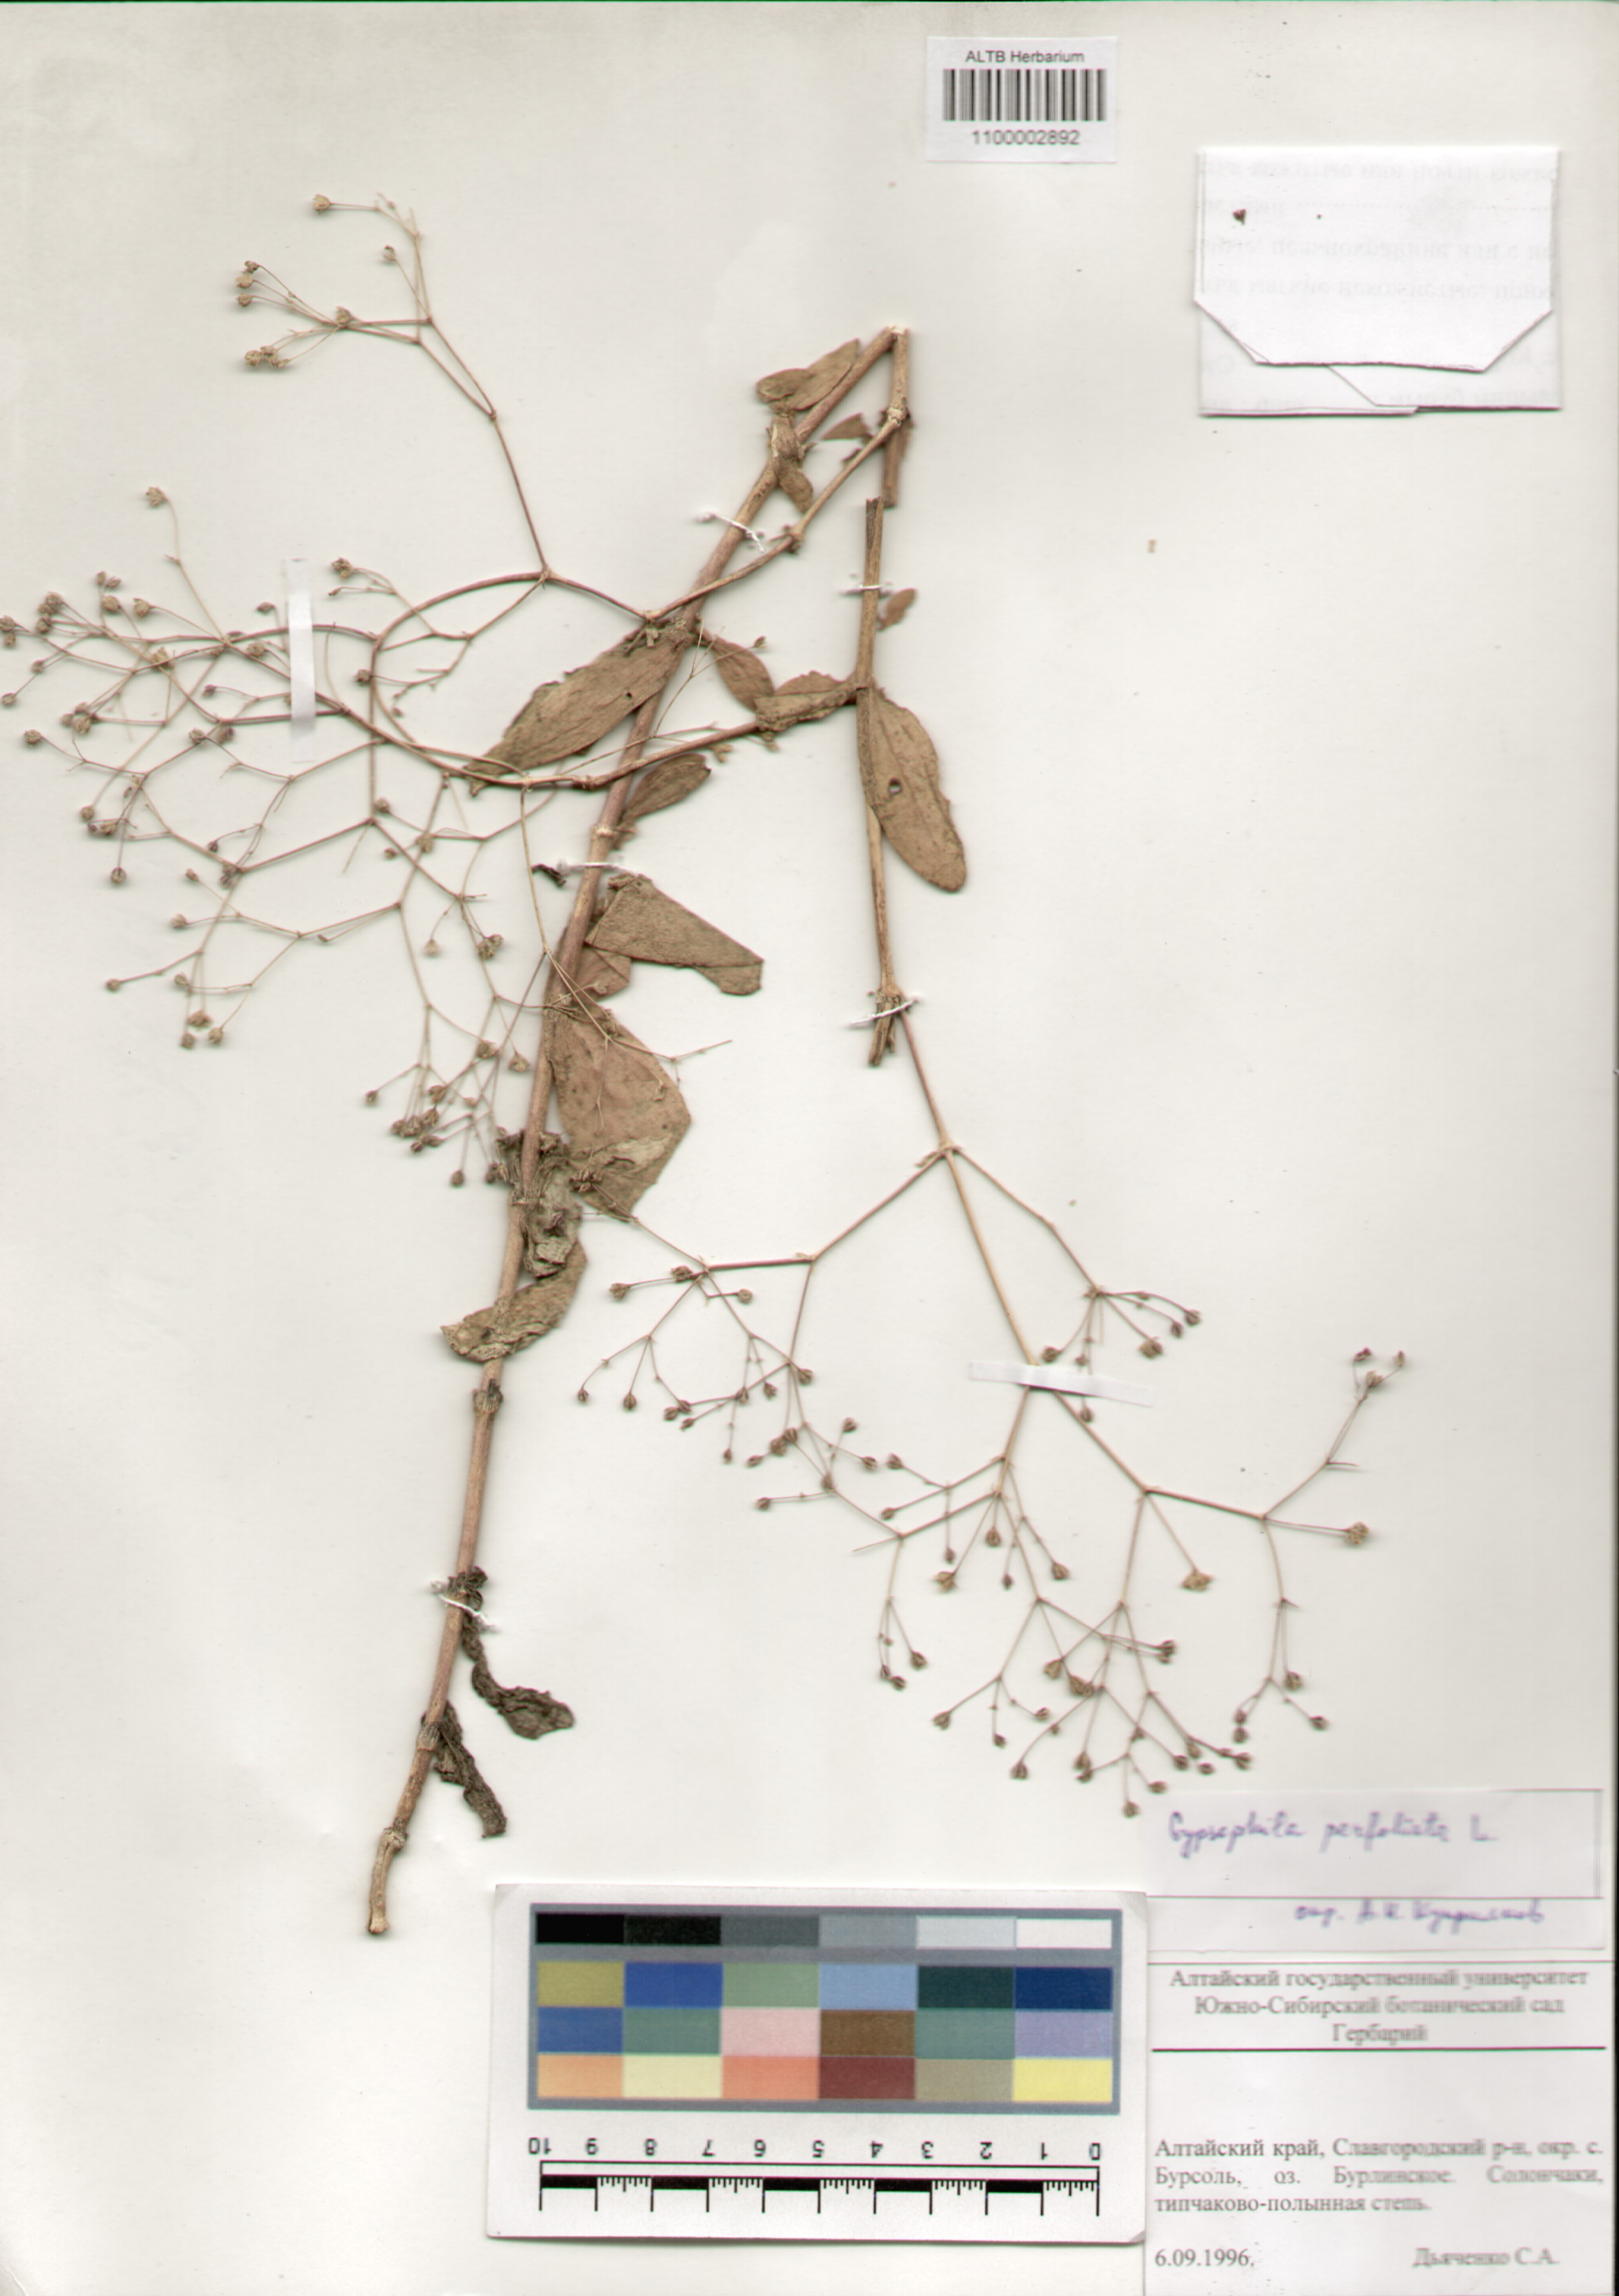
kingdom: Plantae
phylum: Tracheophyta
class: Magnoliopsida
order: Caryophyllales
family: Caryophyllaceae
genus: Gypsophila
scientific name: Gypsophila perfoliata
